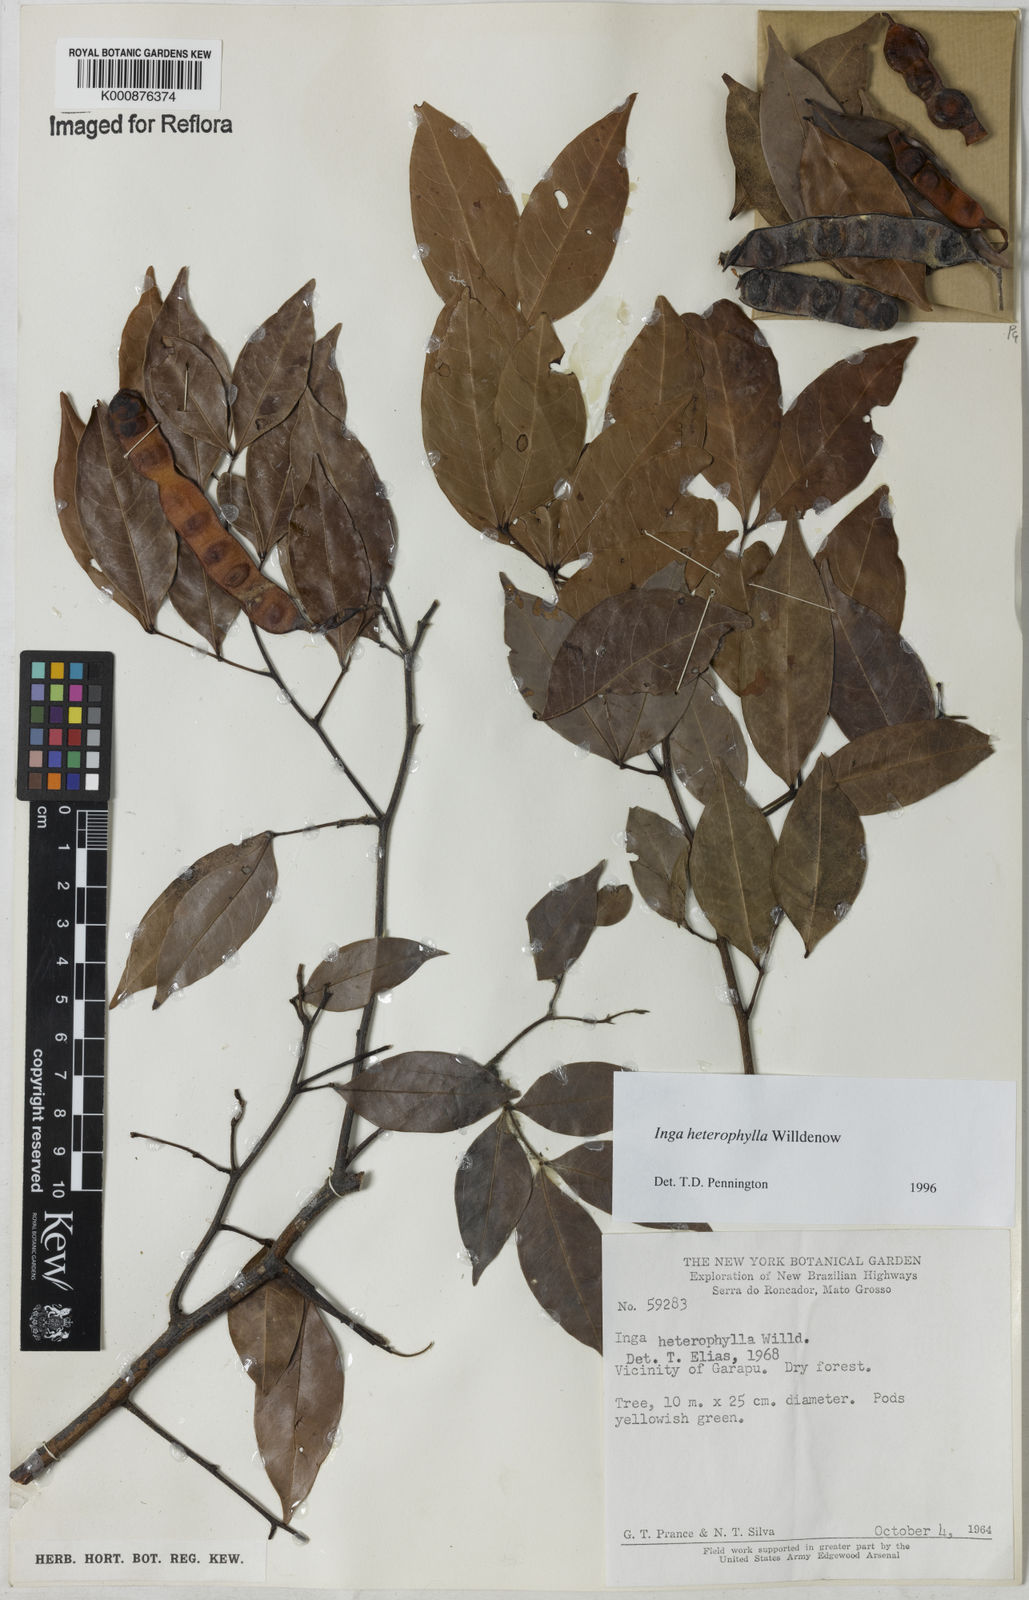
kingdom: Plantae
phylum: Tracheophyta
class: Magnoliopsida
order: Fabales
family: Fabaceae
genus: Inga
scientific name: Inga heterophylla
